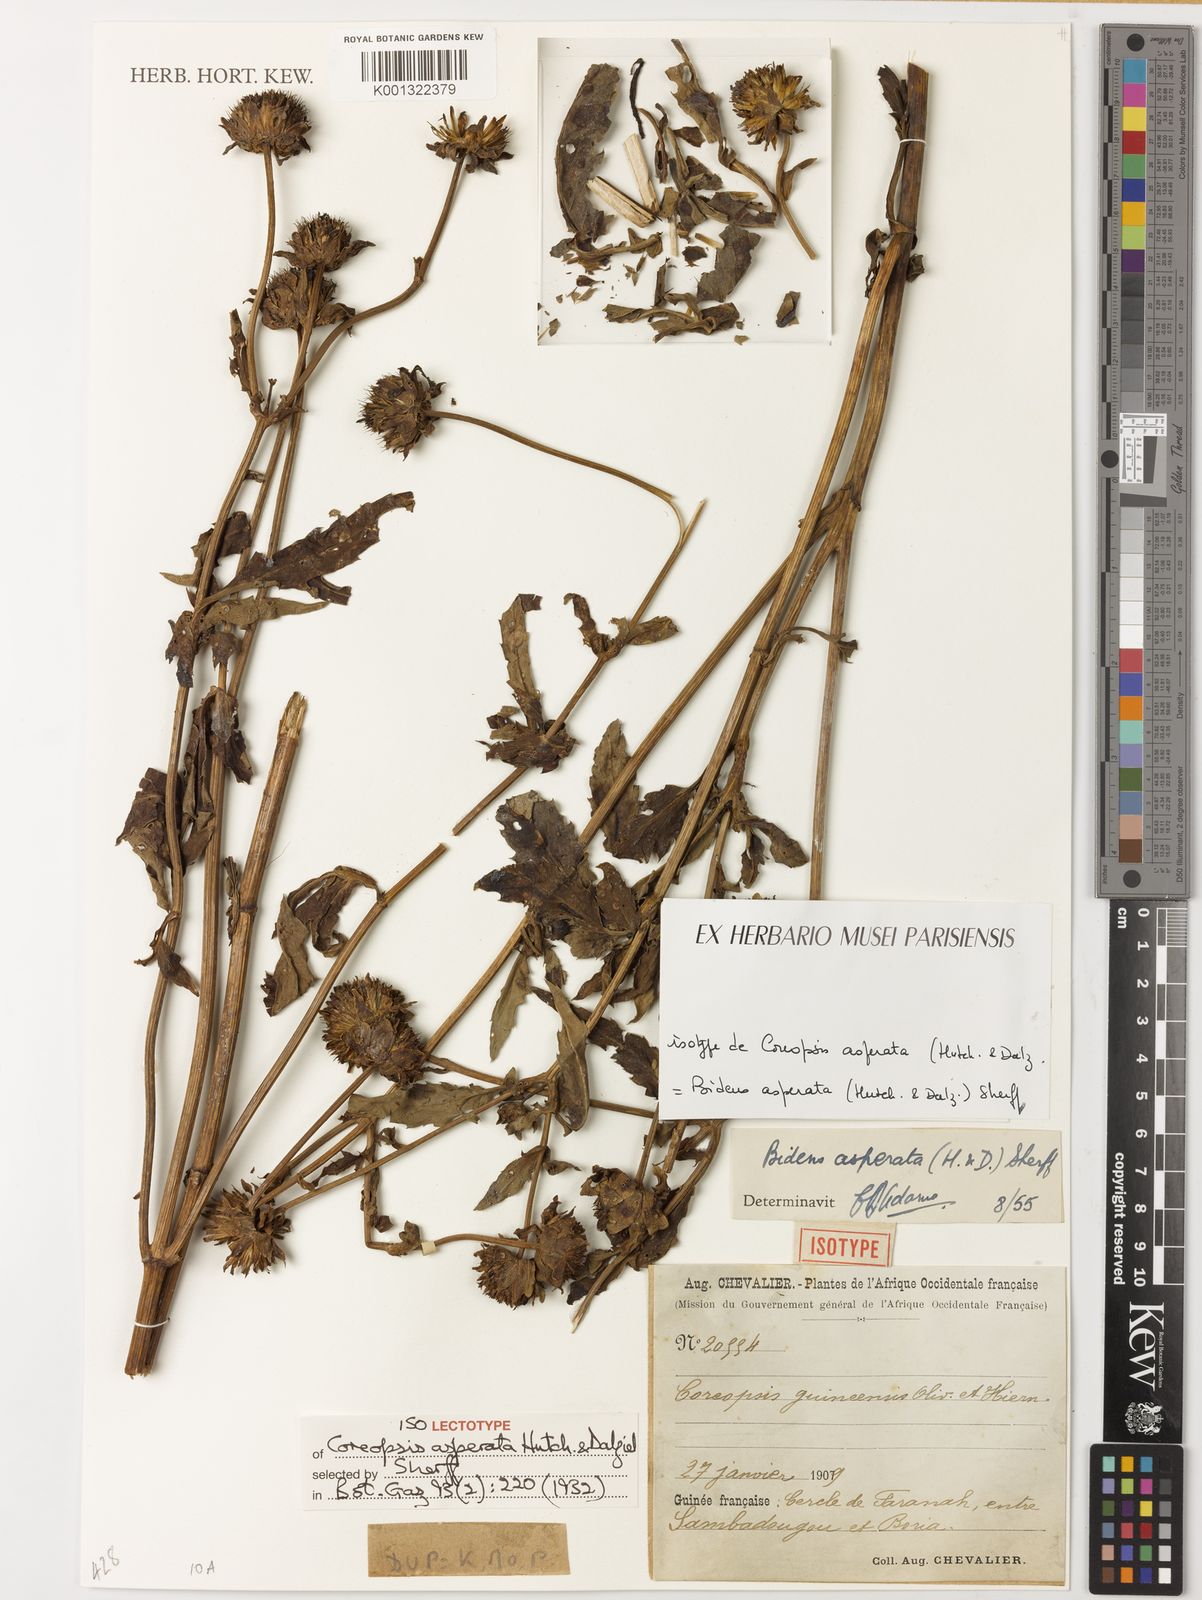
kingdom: Plantae
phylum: Tracheophyta
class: Magnoliopsida
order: Asterales
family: Asteraceae
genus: Bidens
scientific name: Bidens asperata
